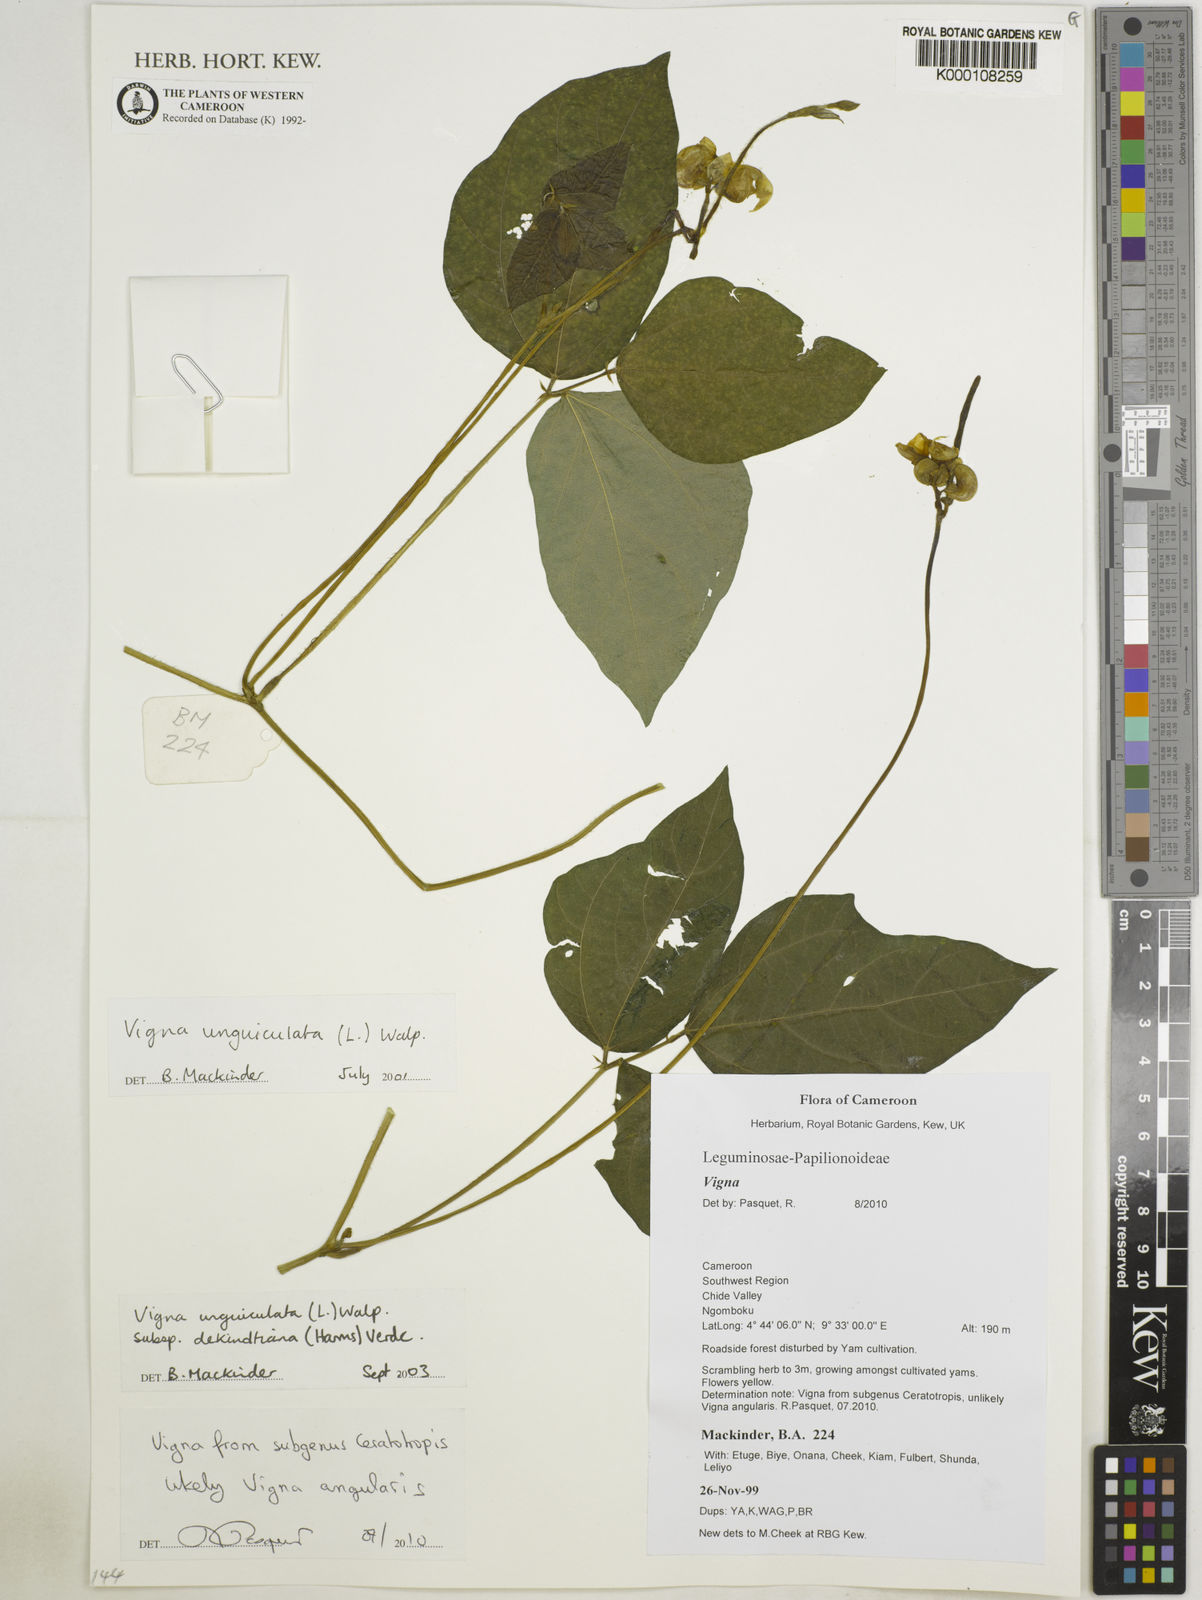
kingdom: Plantae
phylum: Tracheophyta
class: Magnoliopsida
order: Fabales
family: Fabaceae
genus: Vigna
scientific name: Vigna
